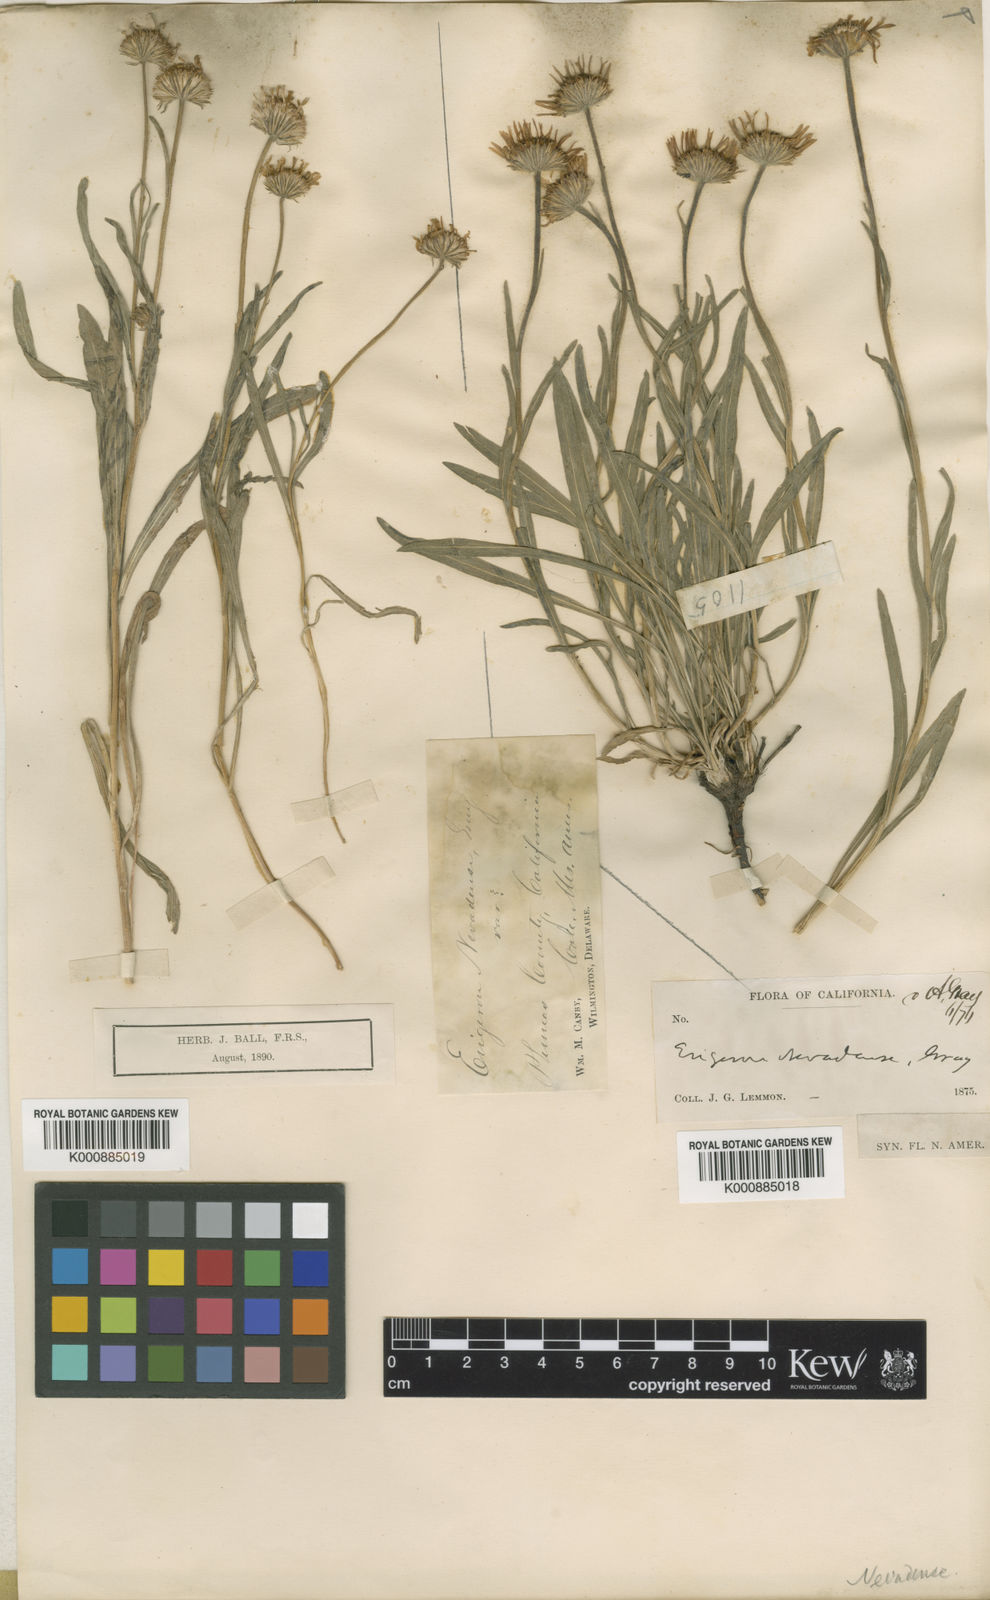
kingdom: Plantae
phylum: Tracheophyta
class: Magnoliopsida
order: Asterales
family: Asteraceae
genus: Oritrophium
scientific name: Oritrophium nevadense
